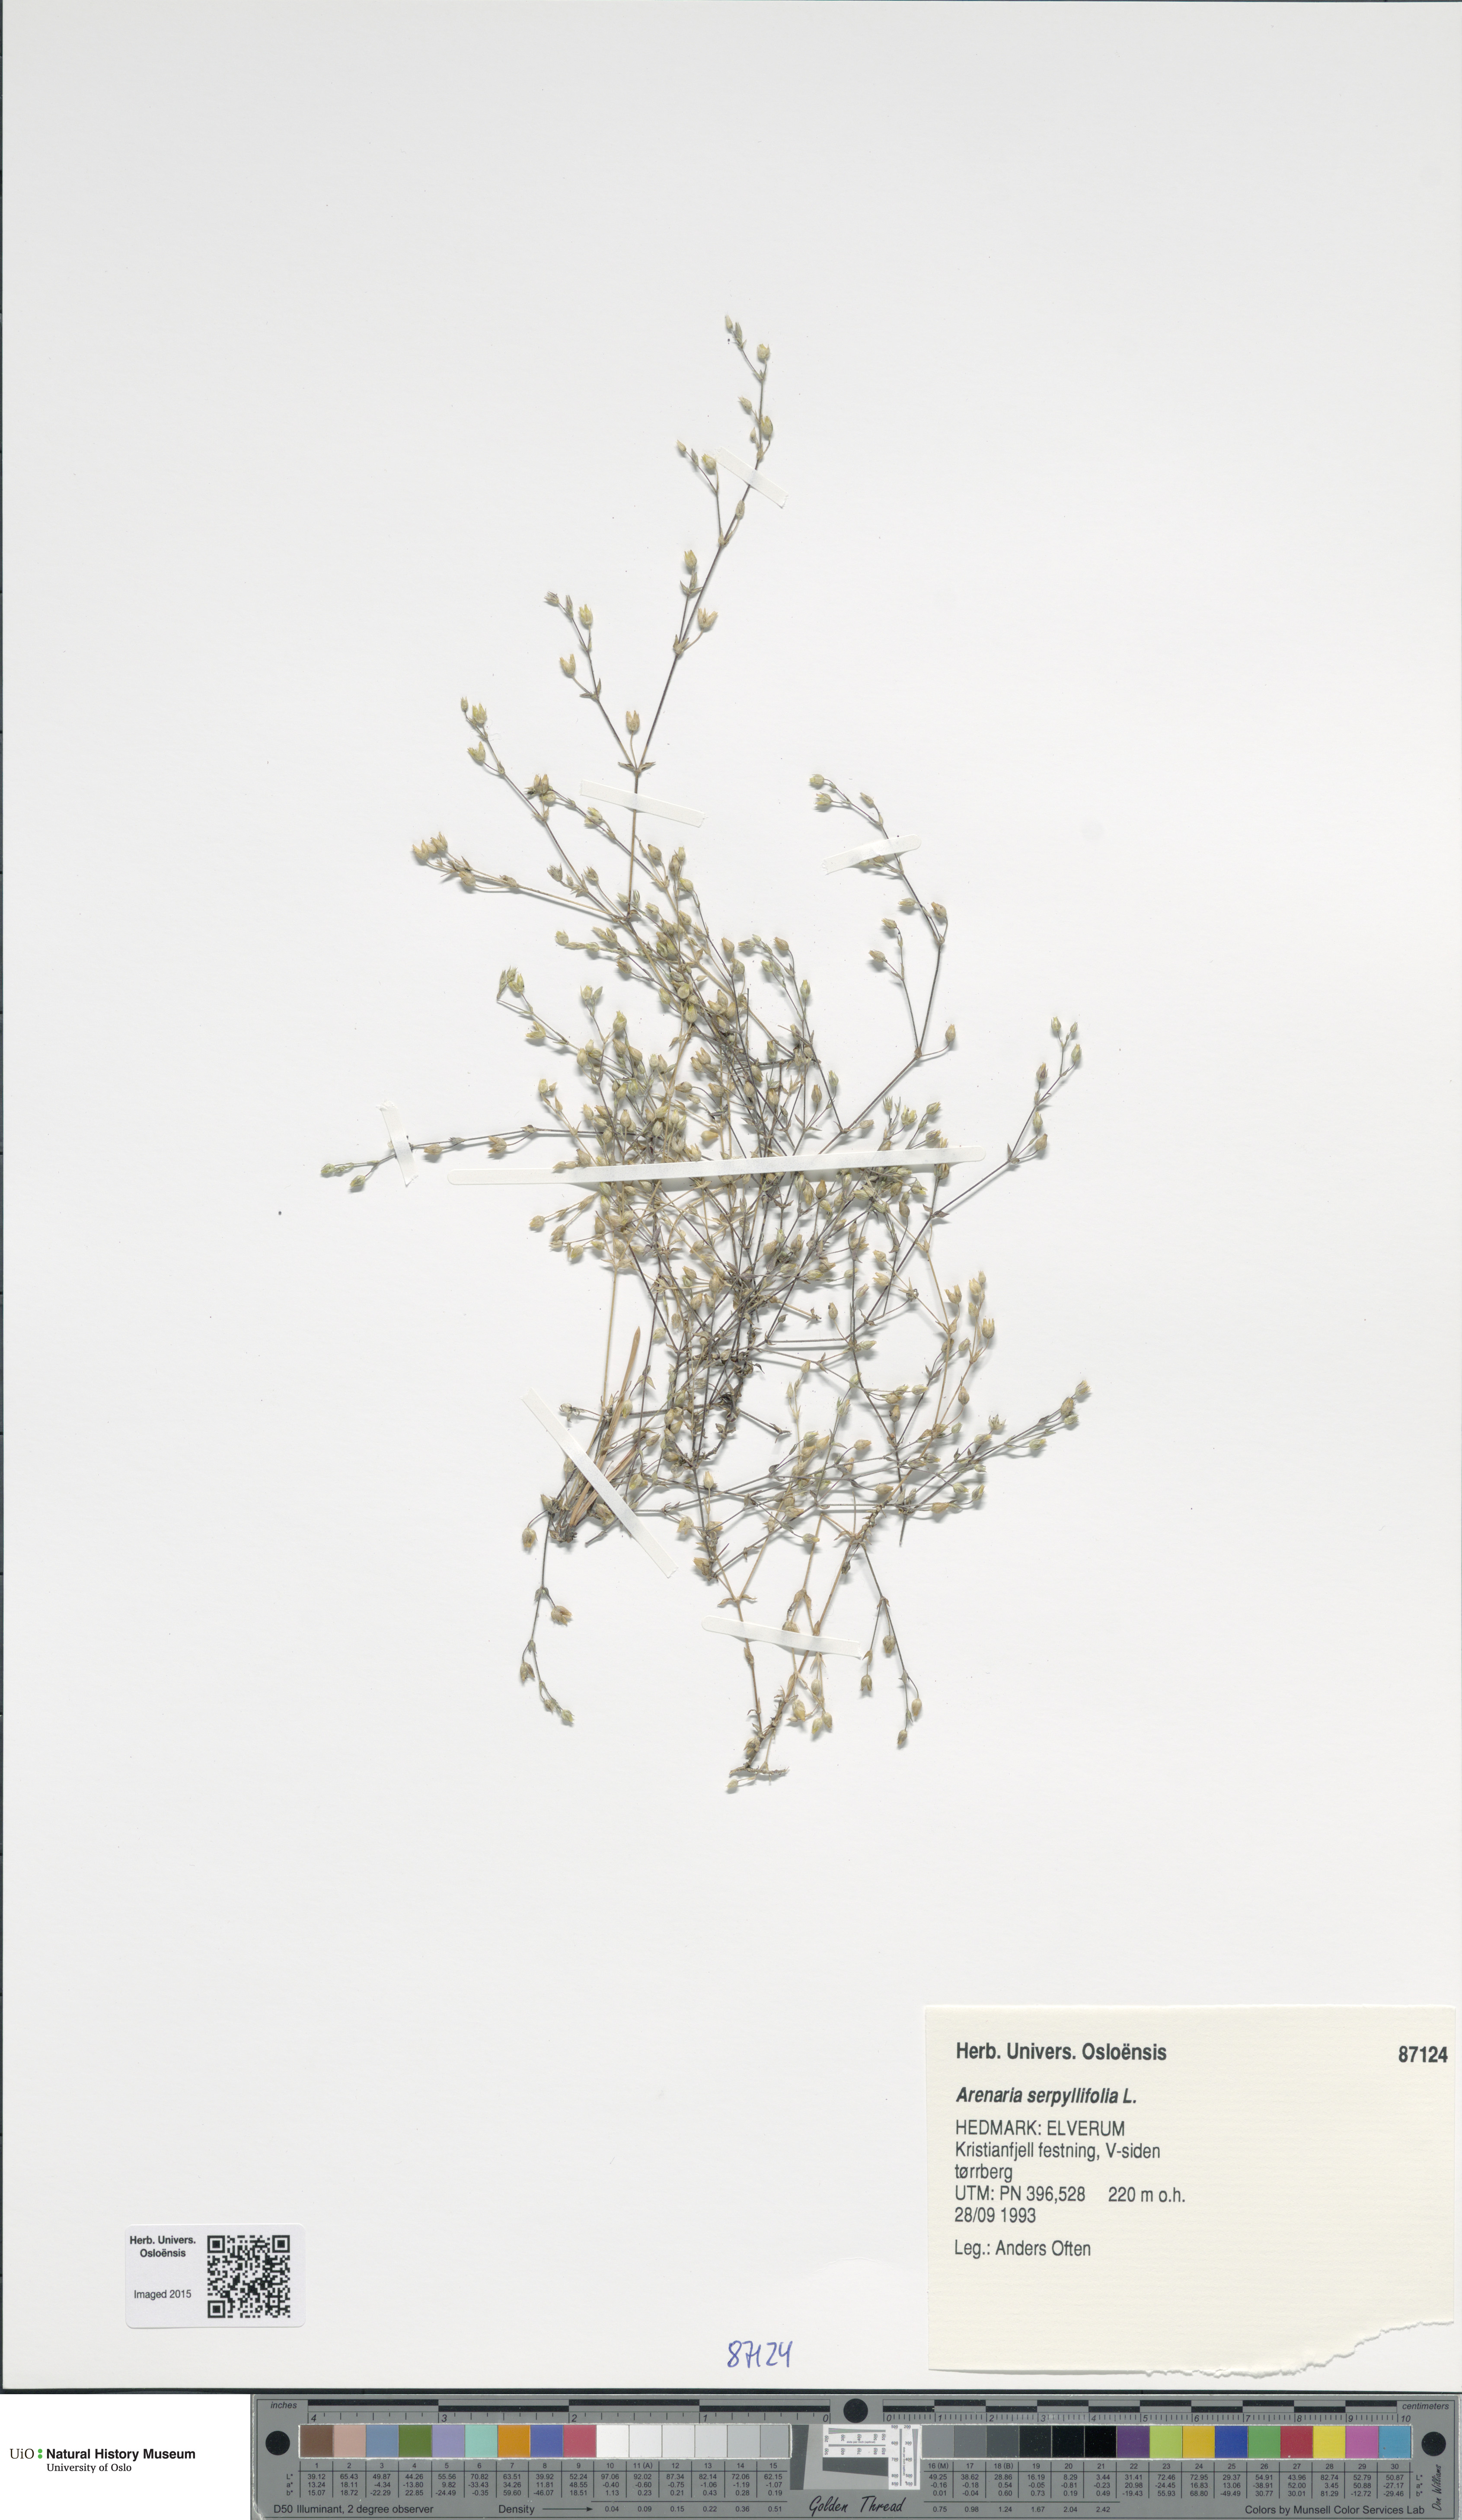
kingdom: Plantae
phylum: Tracheophyta
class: Magnoliopsida
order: Caryophyllales
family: Caryophyllaceae
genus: Arenaria
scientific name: Arenaria serpyllifolia
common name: Thyme-leaved sandwort
